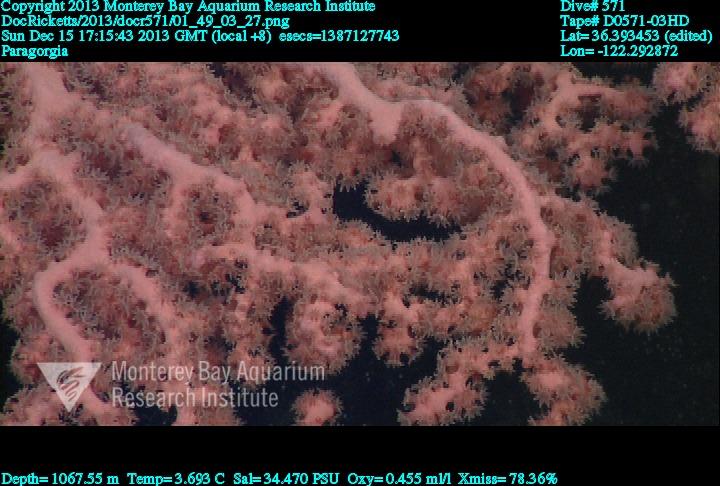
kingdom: Animalia
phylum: Cnidaria
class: Anthozoa
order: Scleralcyonacea
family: Coralliidae
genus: Paragorgia
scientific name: Paragorgia
